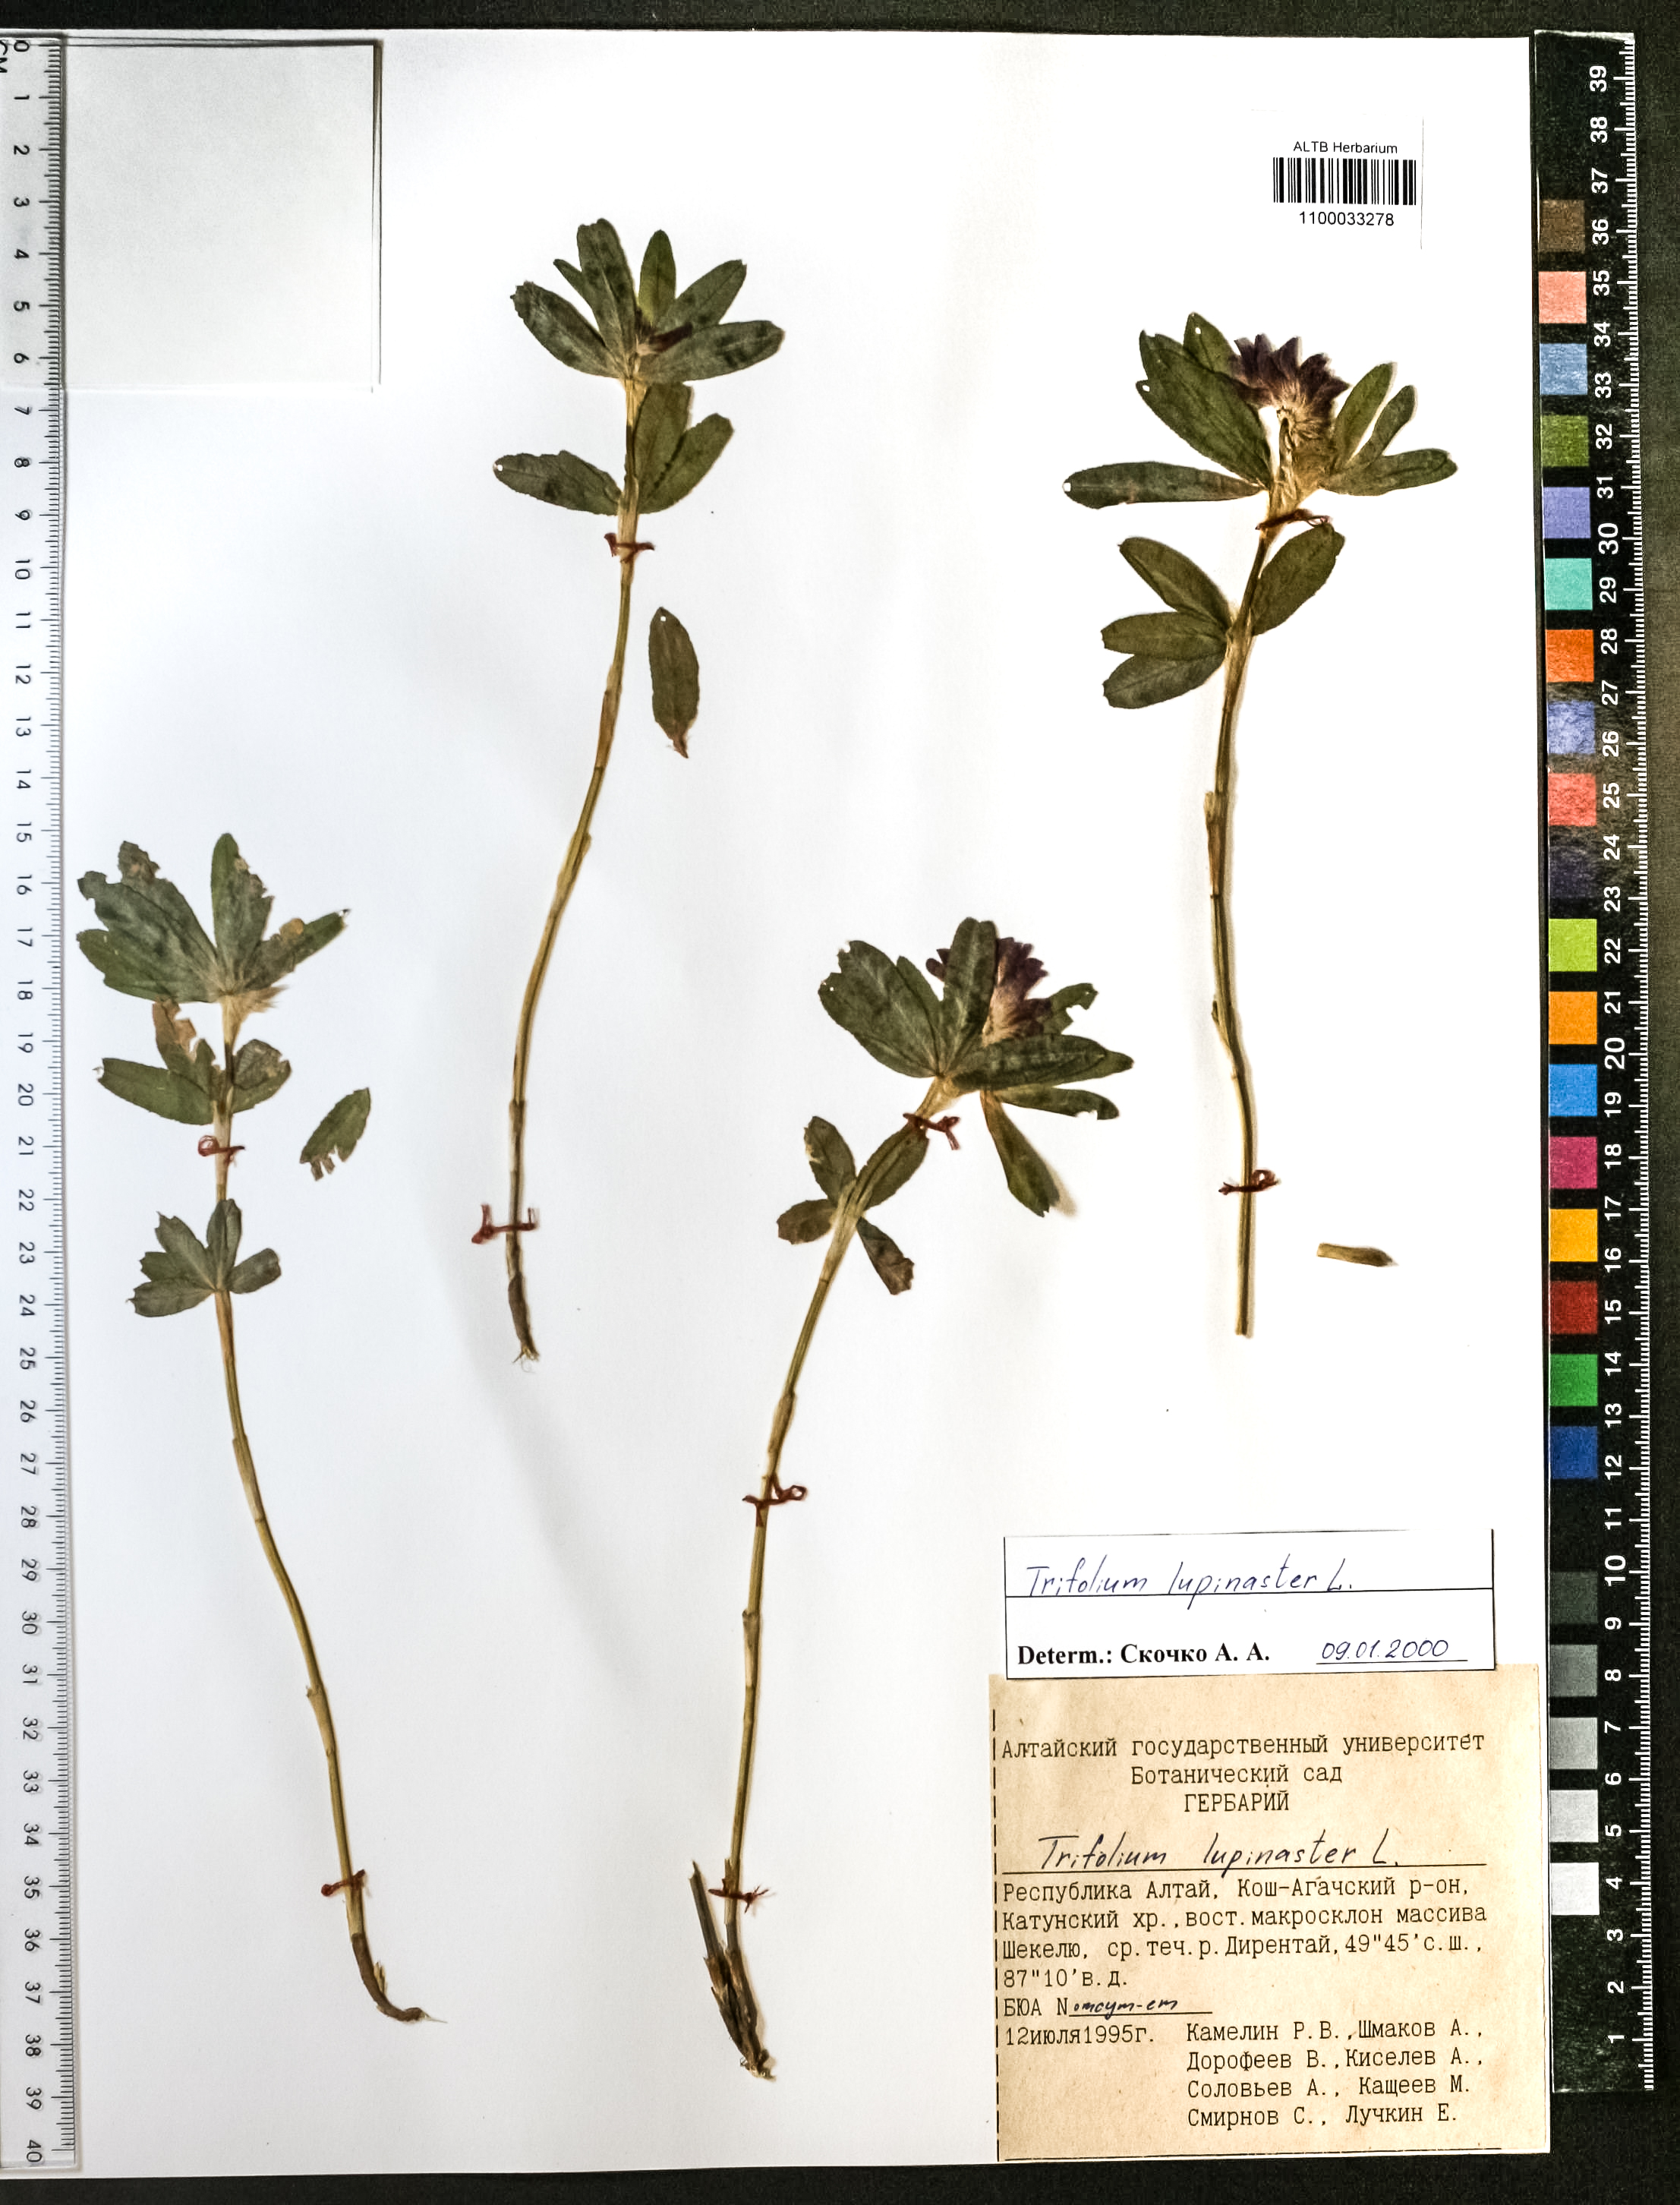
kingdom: Plantae
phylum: Tracheophyta
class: Magnoliopsida
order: Fabales
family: Fabaceae
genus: Trifolium
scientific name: Trifolium lupinaster
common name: Lupine clover
